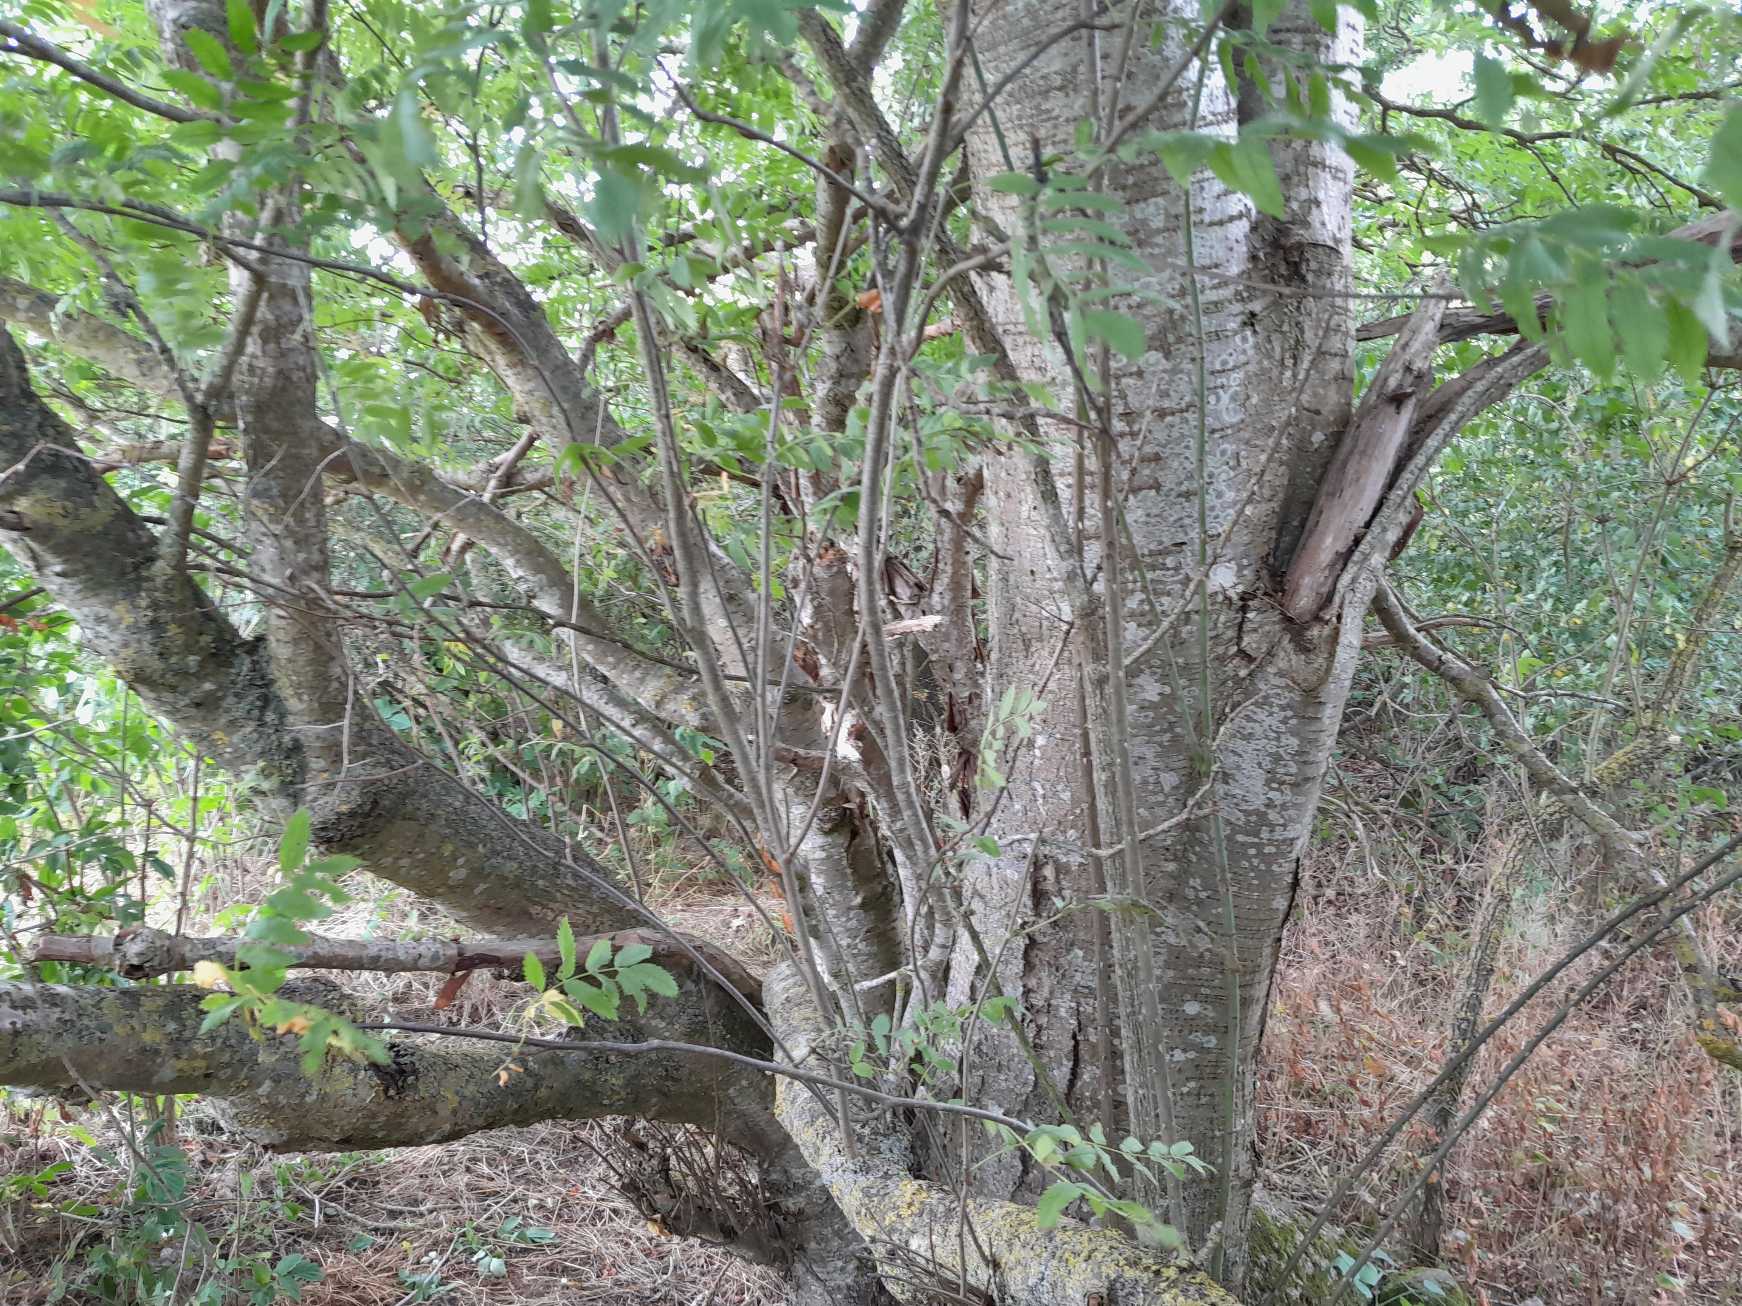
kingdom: Plantae
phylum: Tracheophyta
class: Magnoliopsida
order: Rosales
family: Rosaceae
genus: Sorbus
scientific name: Sorbus aucuparia
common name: Almindelig røn
